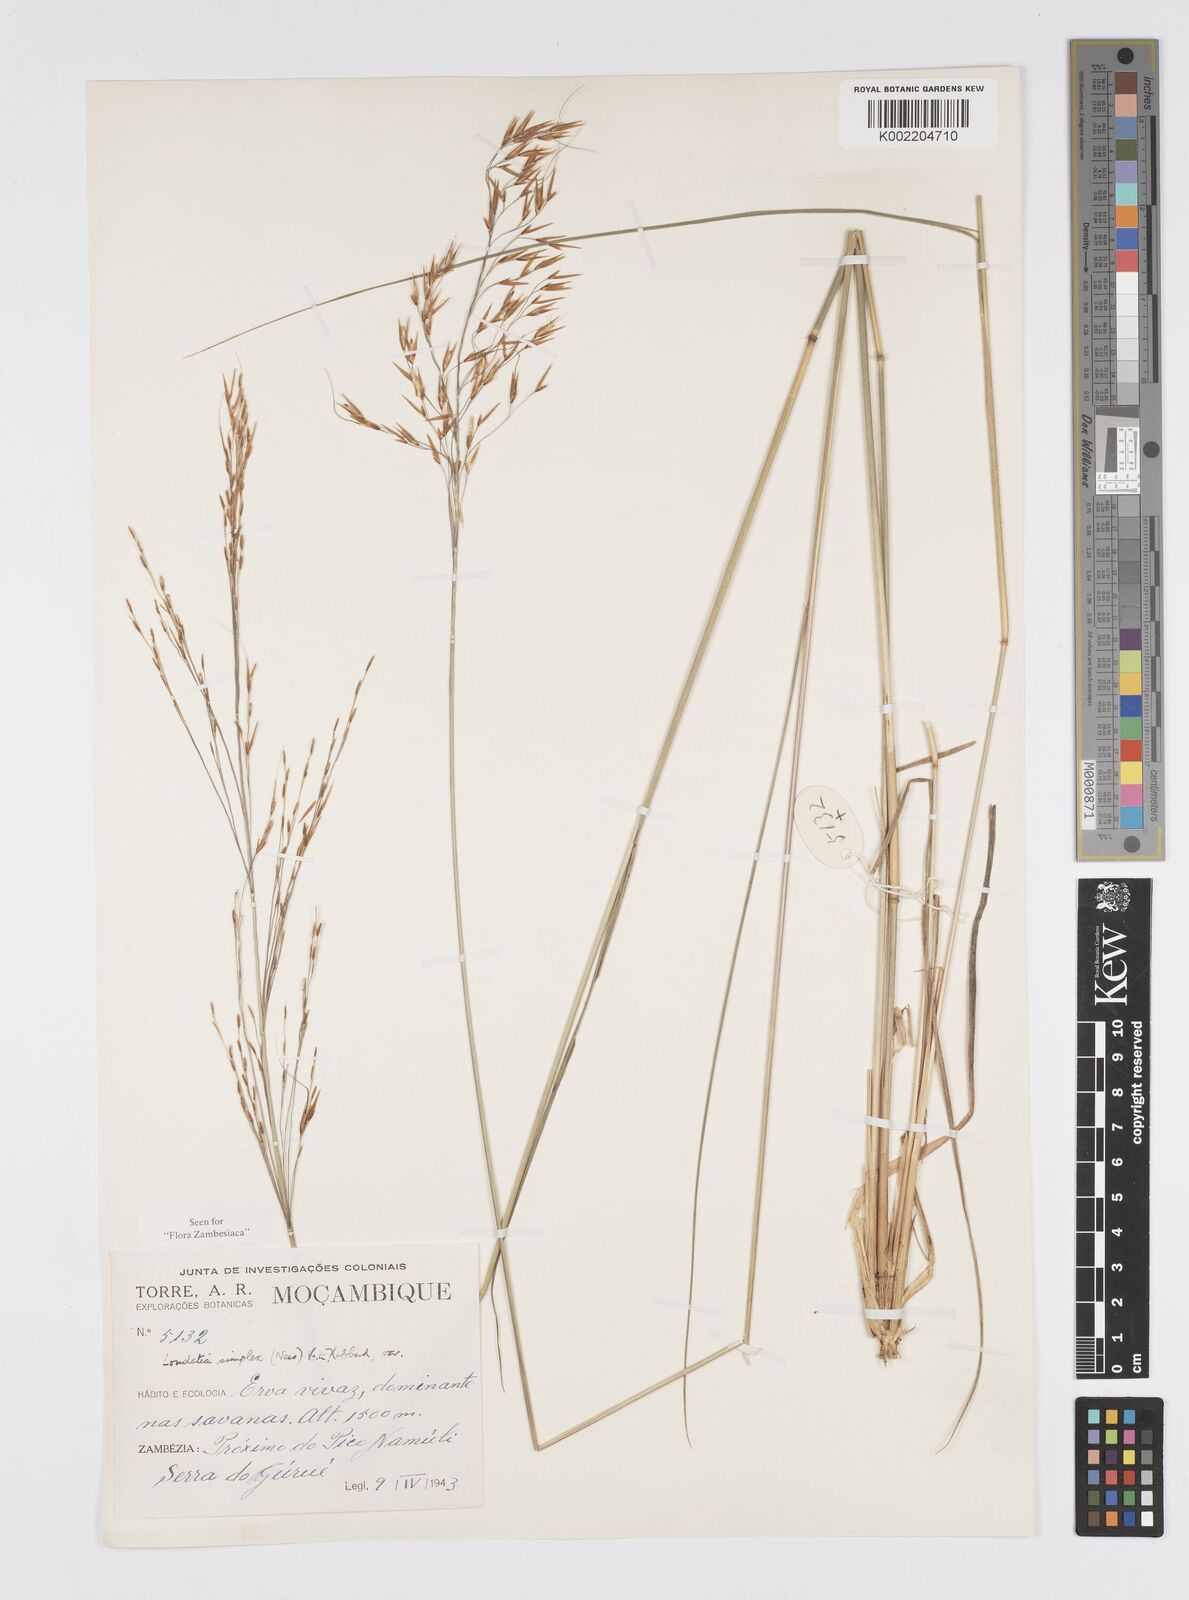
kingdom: Plantae
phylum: Tracheophyta
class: Liliopsida
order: Poales
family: Poaceae
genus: Loudetia
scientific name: Loudetia simplex
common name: Common russet grass
